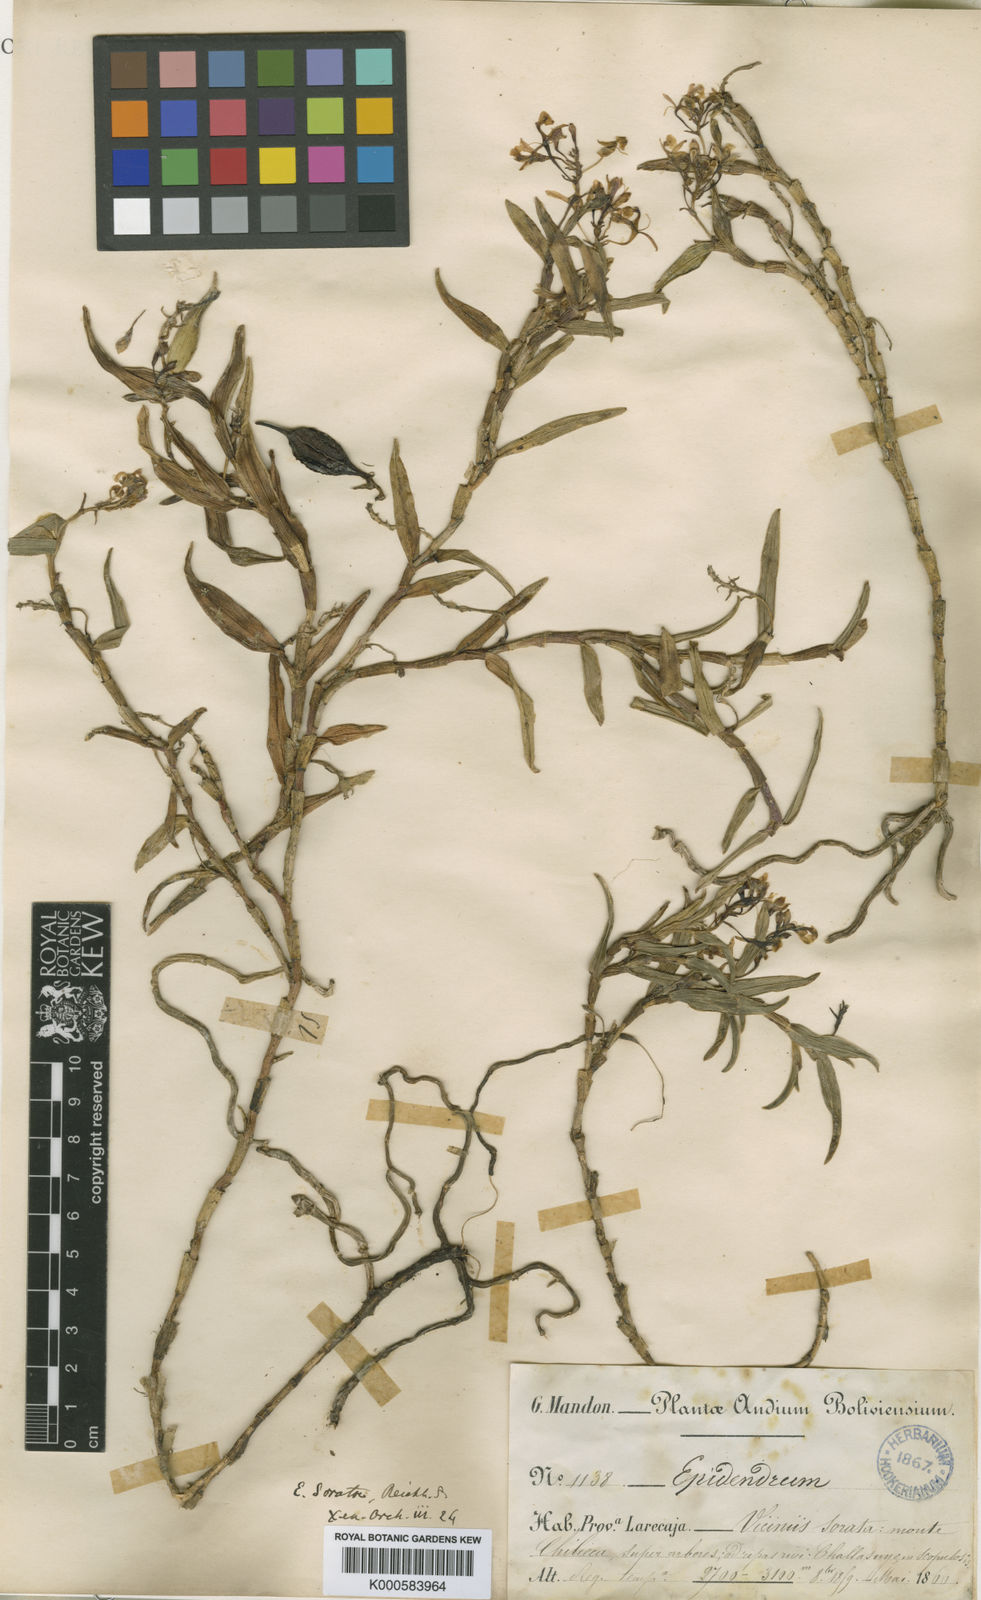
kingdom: Plantae
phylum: Tracheophyta
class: Liliopsida
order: Asparagales
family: Orchidaceae
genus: Epidendrum
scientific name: Epidendrum soratae
